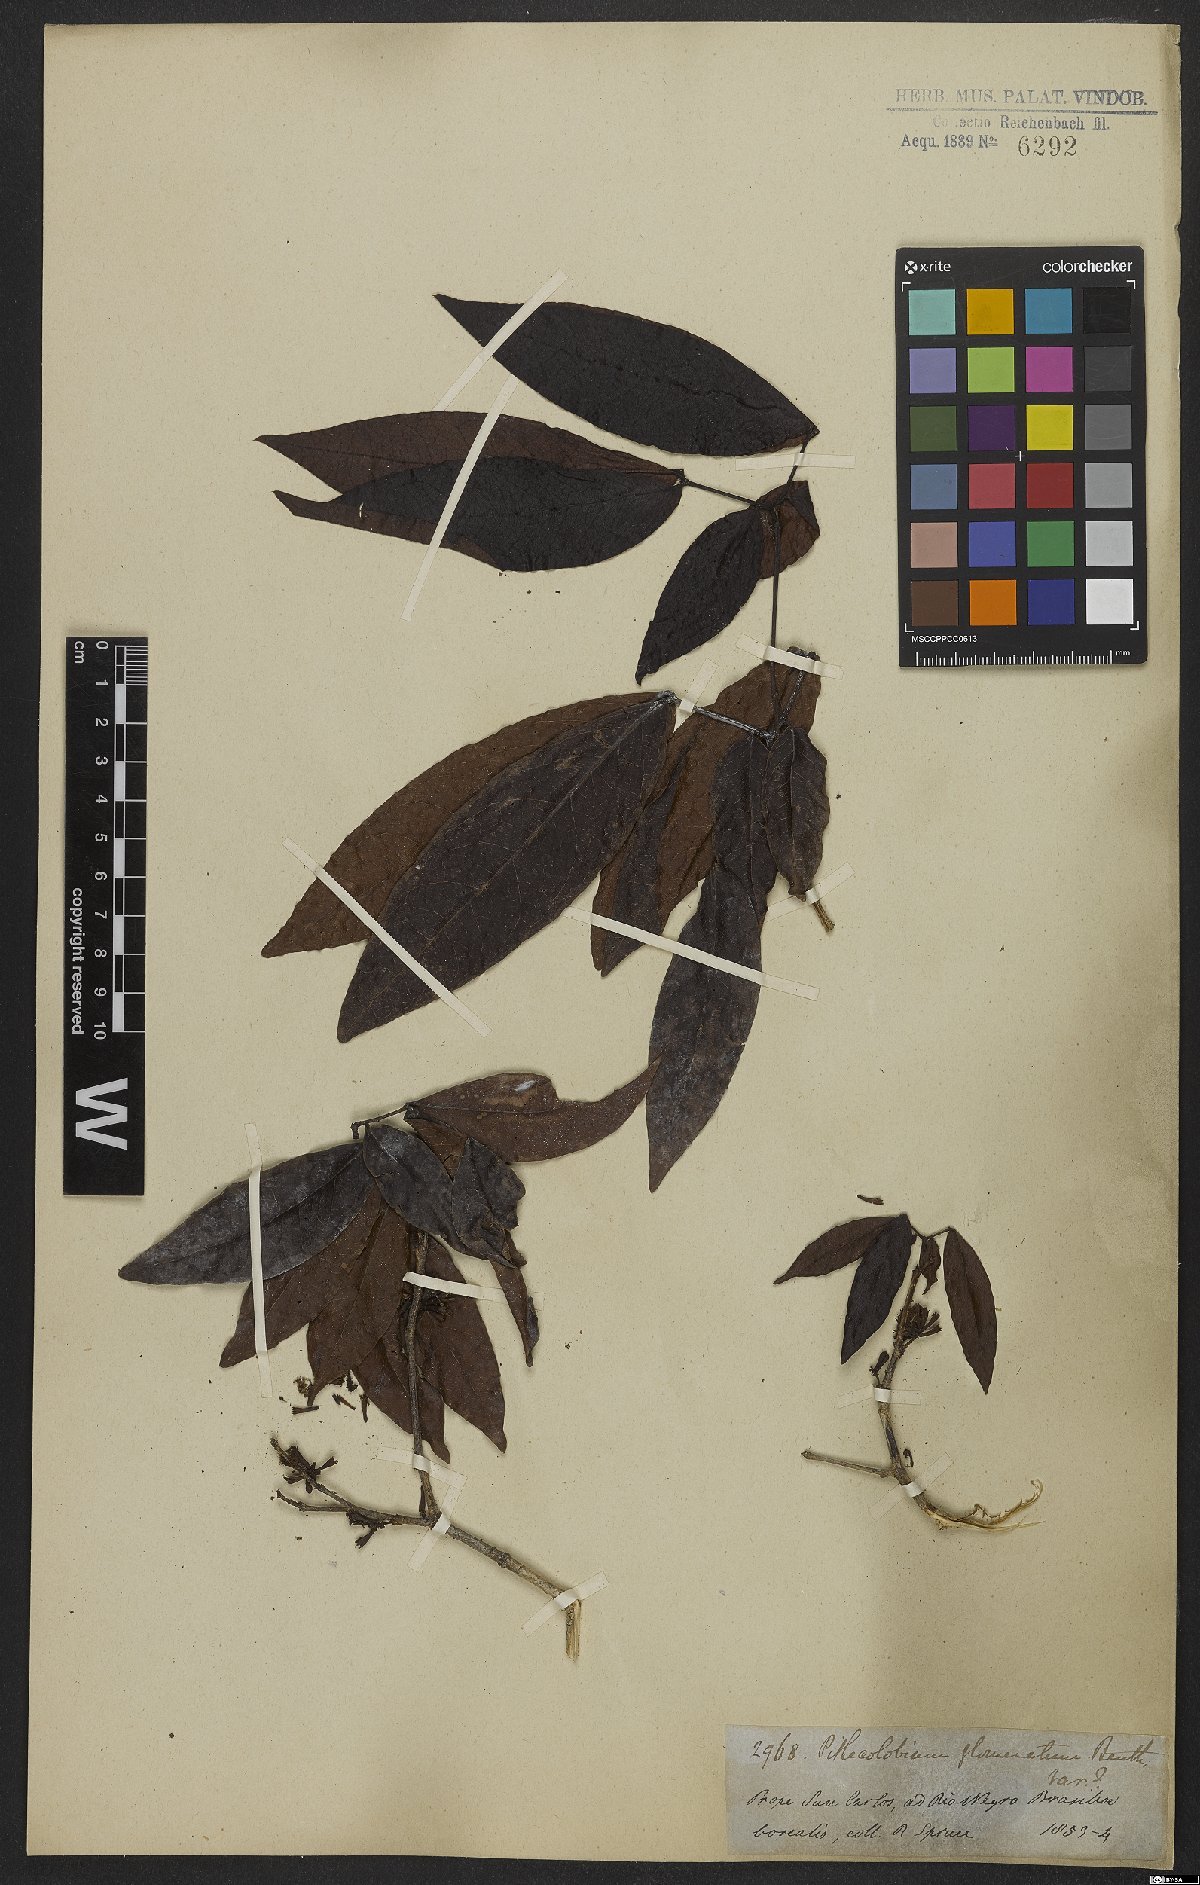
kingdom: Plantae
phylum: Tracheophyta
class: Magnoliopsida
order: Fabales
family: Fabaceae
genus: Zygia
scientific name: Zygia cataractae
